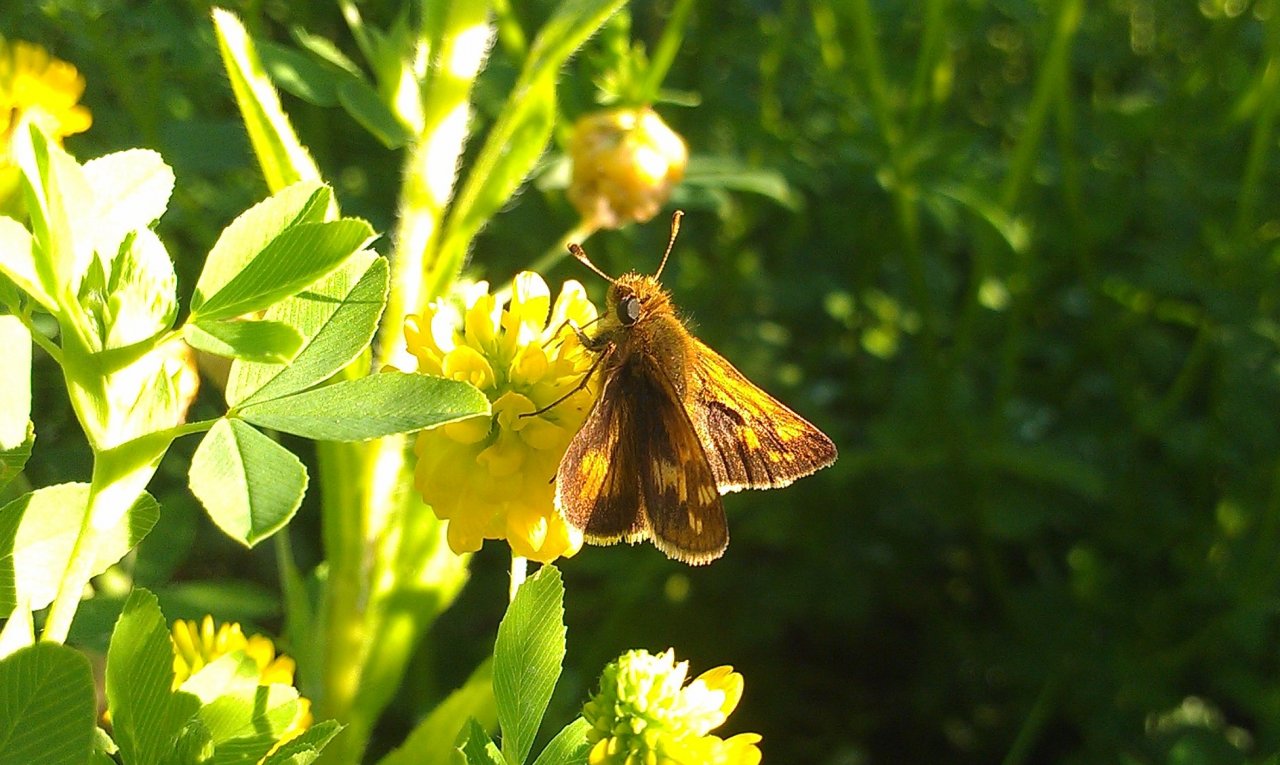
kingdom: Animalia
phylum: Arthropoda
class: Insecta
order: Lepidoptera
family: Hesperiidae
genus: Polites
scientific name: Polites coras
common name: Peck's Skipper
